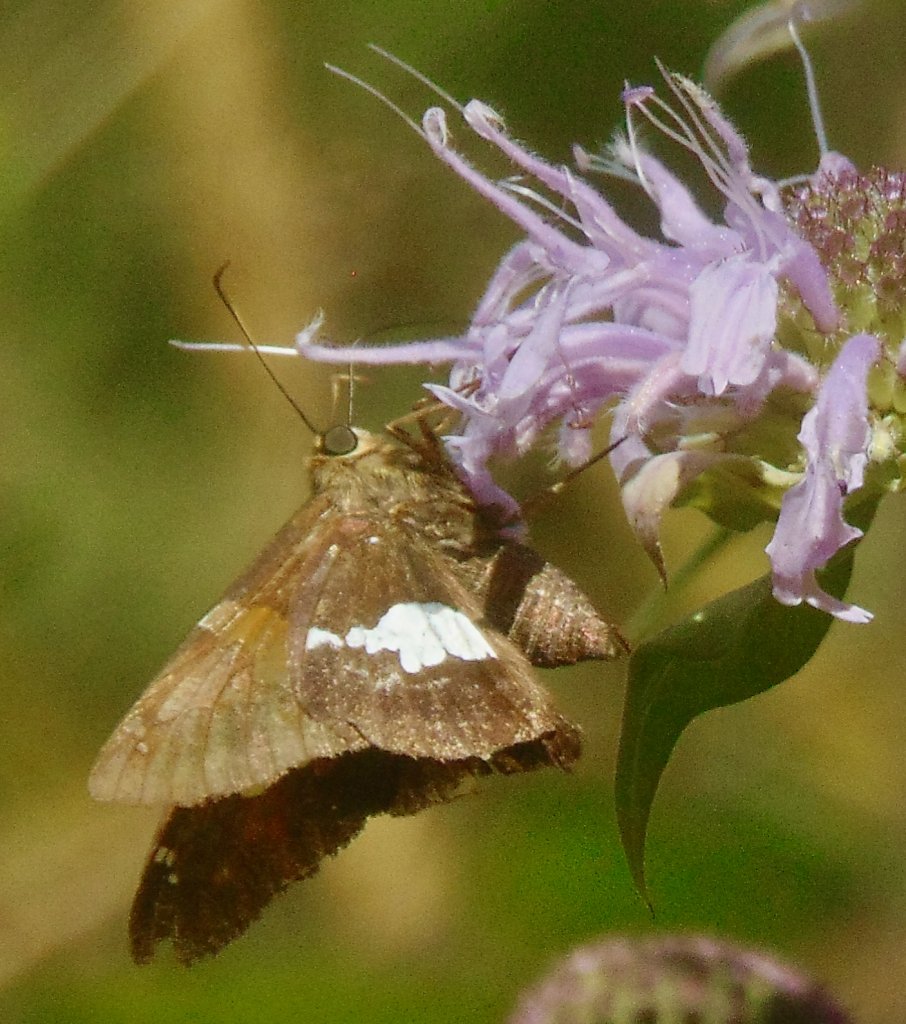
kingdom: Animalia
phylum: Arthropoda
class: Insecta
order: Lepidoptera
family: Hesperiidae
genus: Epargyreus
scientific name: Epargyreus clarus
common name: Silver-spotted Skipper
